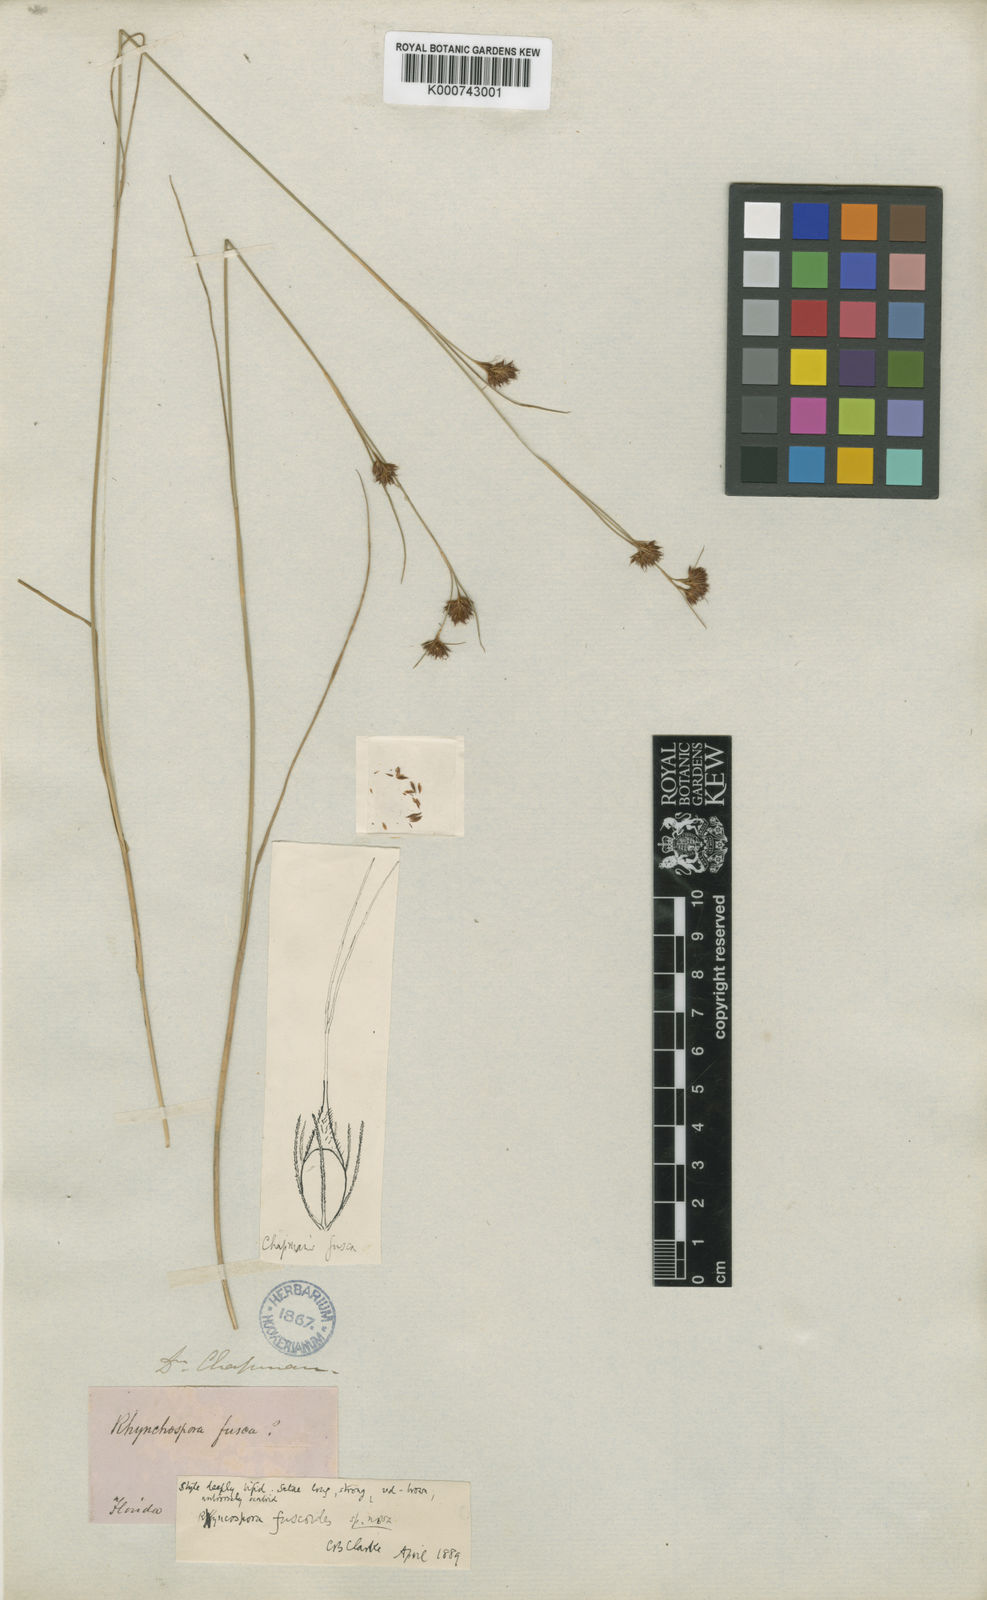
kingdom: Plantae
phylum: Tracheophyta
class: Liliopsida
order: Poales
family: Cyperaceae
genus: Rhynchospora
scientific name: Rhynchospora filifolia
